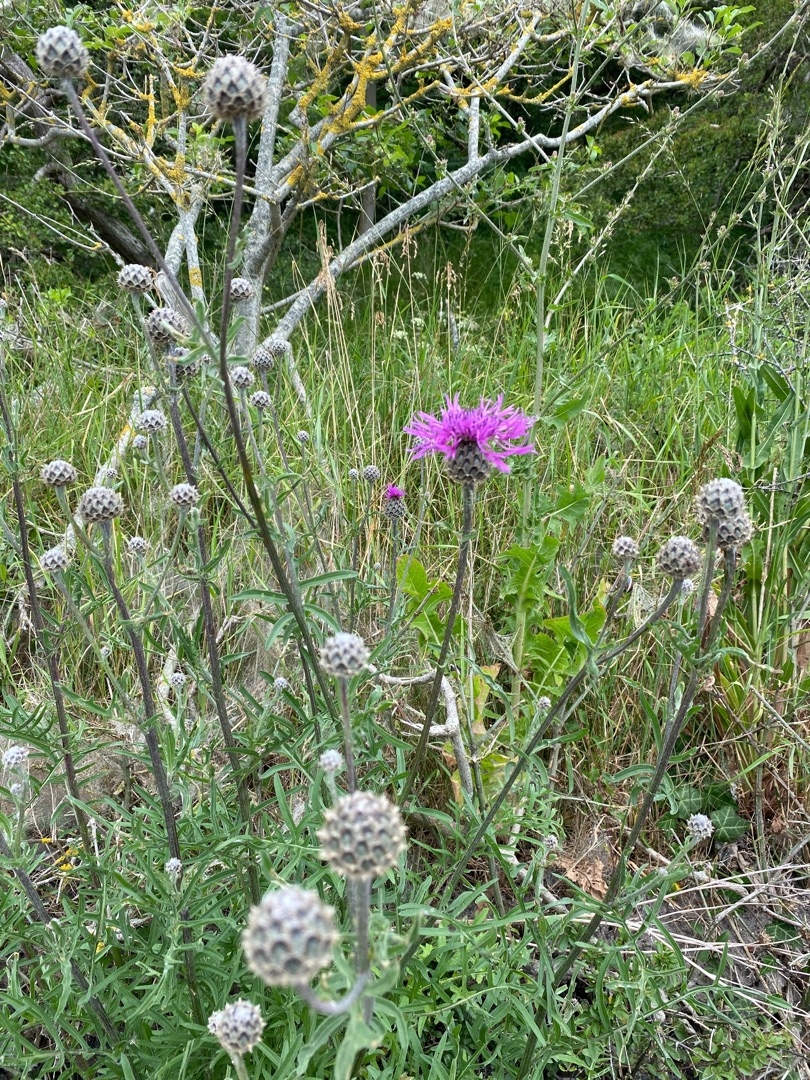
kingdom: Plantae
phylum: Tracheophyta
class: Magnoliopsida
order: Asterales
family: Asteraceae
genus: Centaurea
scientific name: Centaurea scabiosa
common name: Stor knopurt
